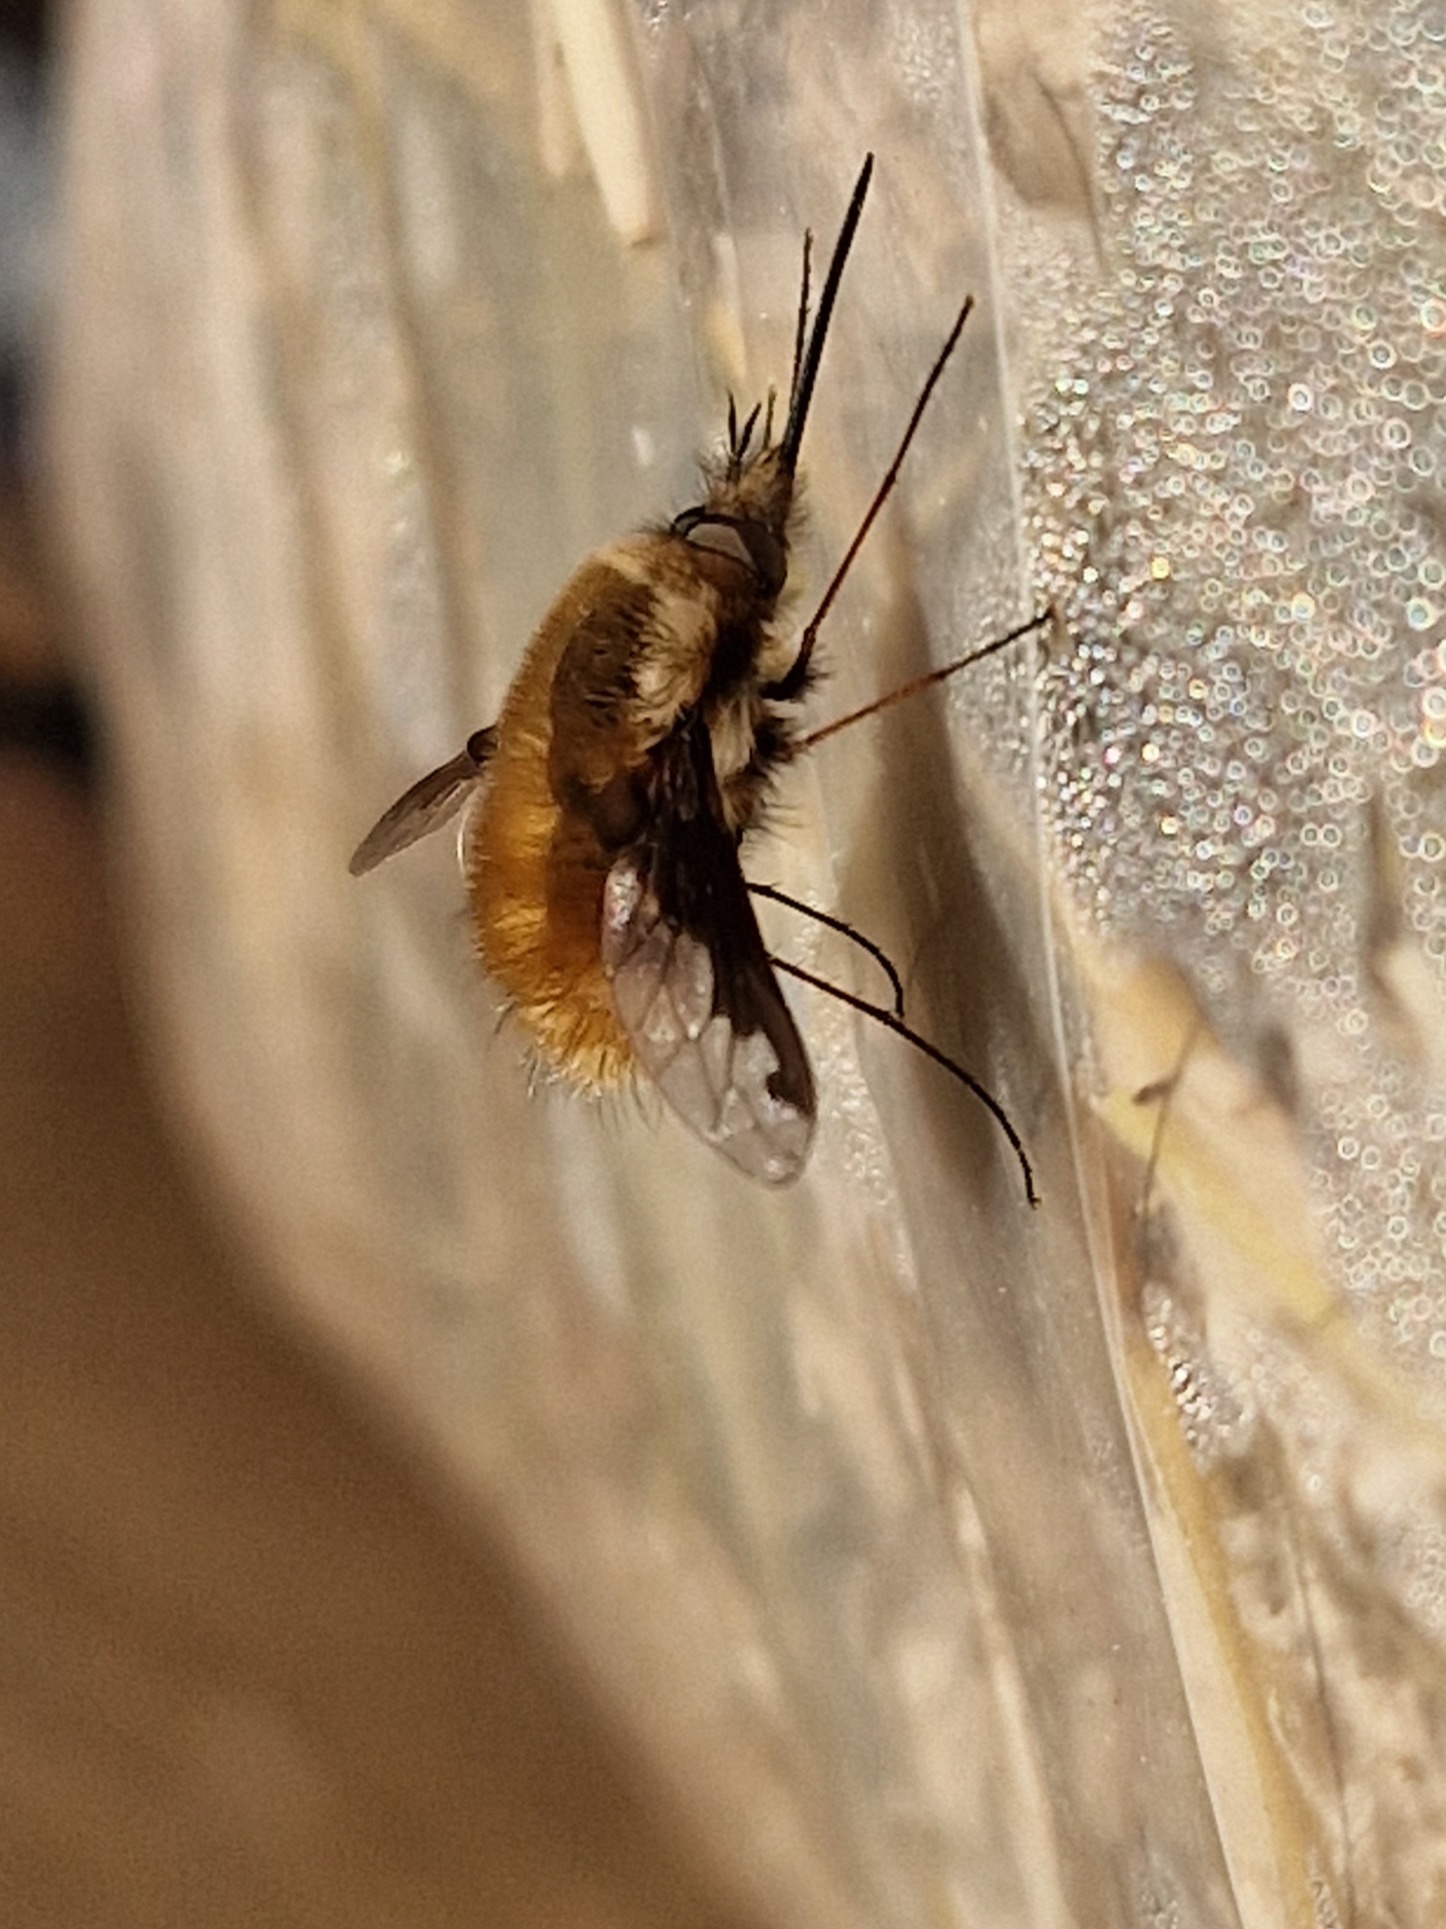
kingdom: Animalia
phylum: Arthropoda
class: Insecta
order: Diptera
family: Bombyliidae
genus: Bombylius
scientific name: Bombylius major
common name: Stor humleflue
